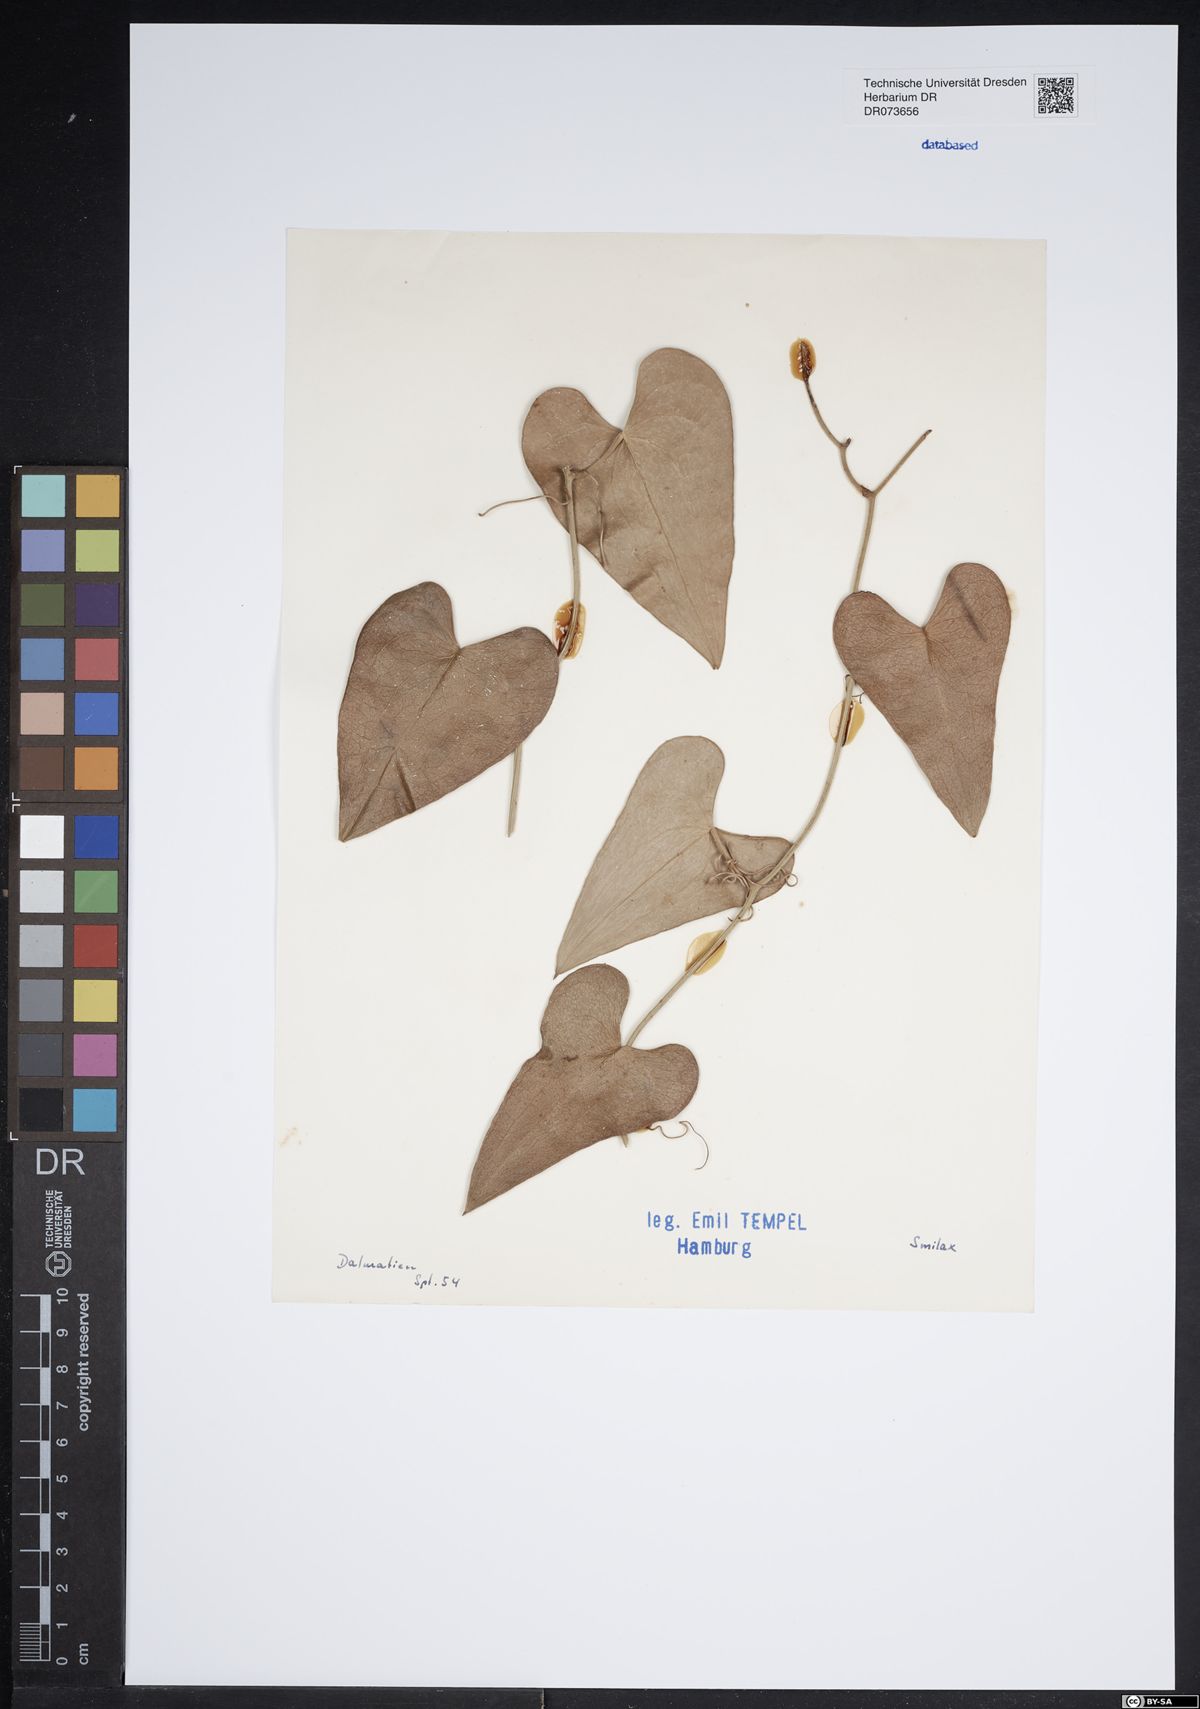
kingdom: Plantae
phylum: Tracheophyta
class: Liliopsida
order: Liliales
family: Smilacaceae
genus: Smilax
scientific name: Smilax
